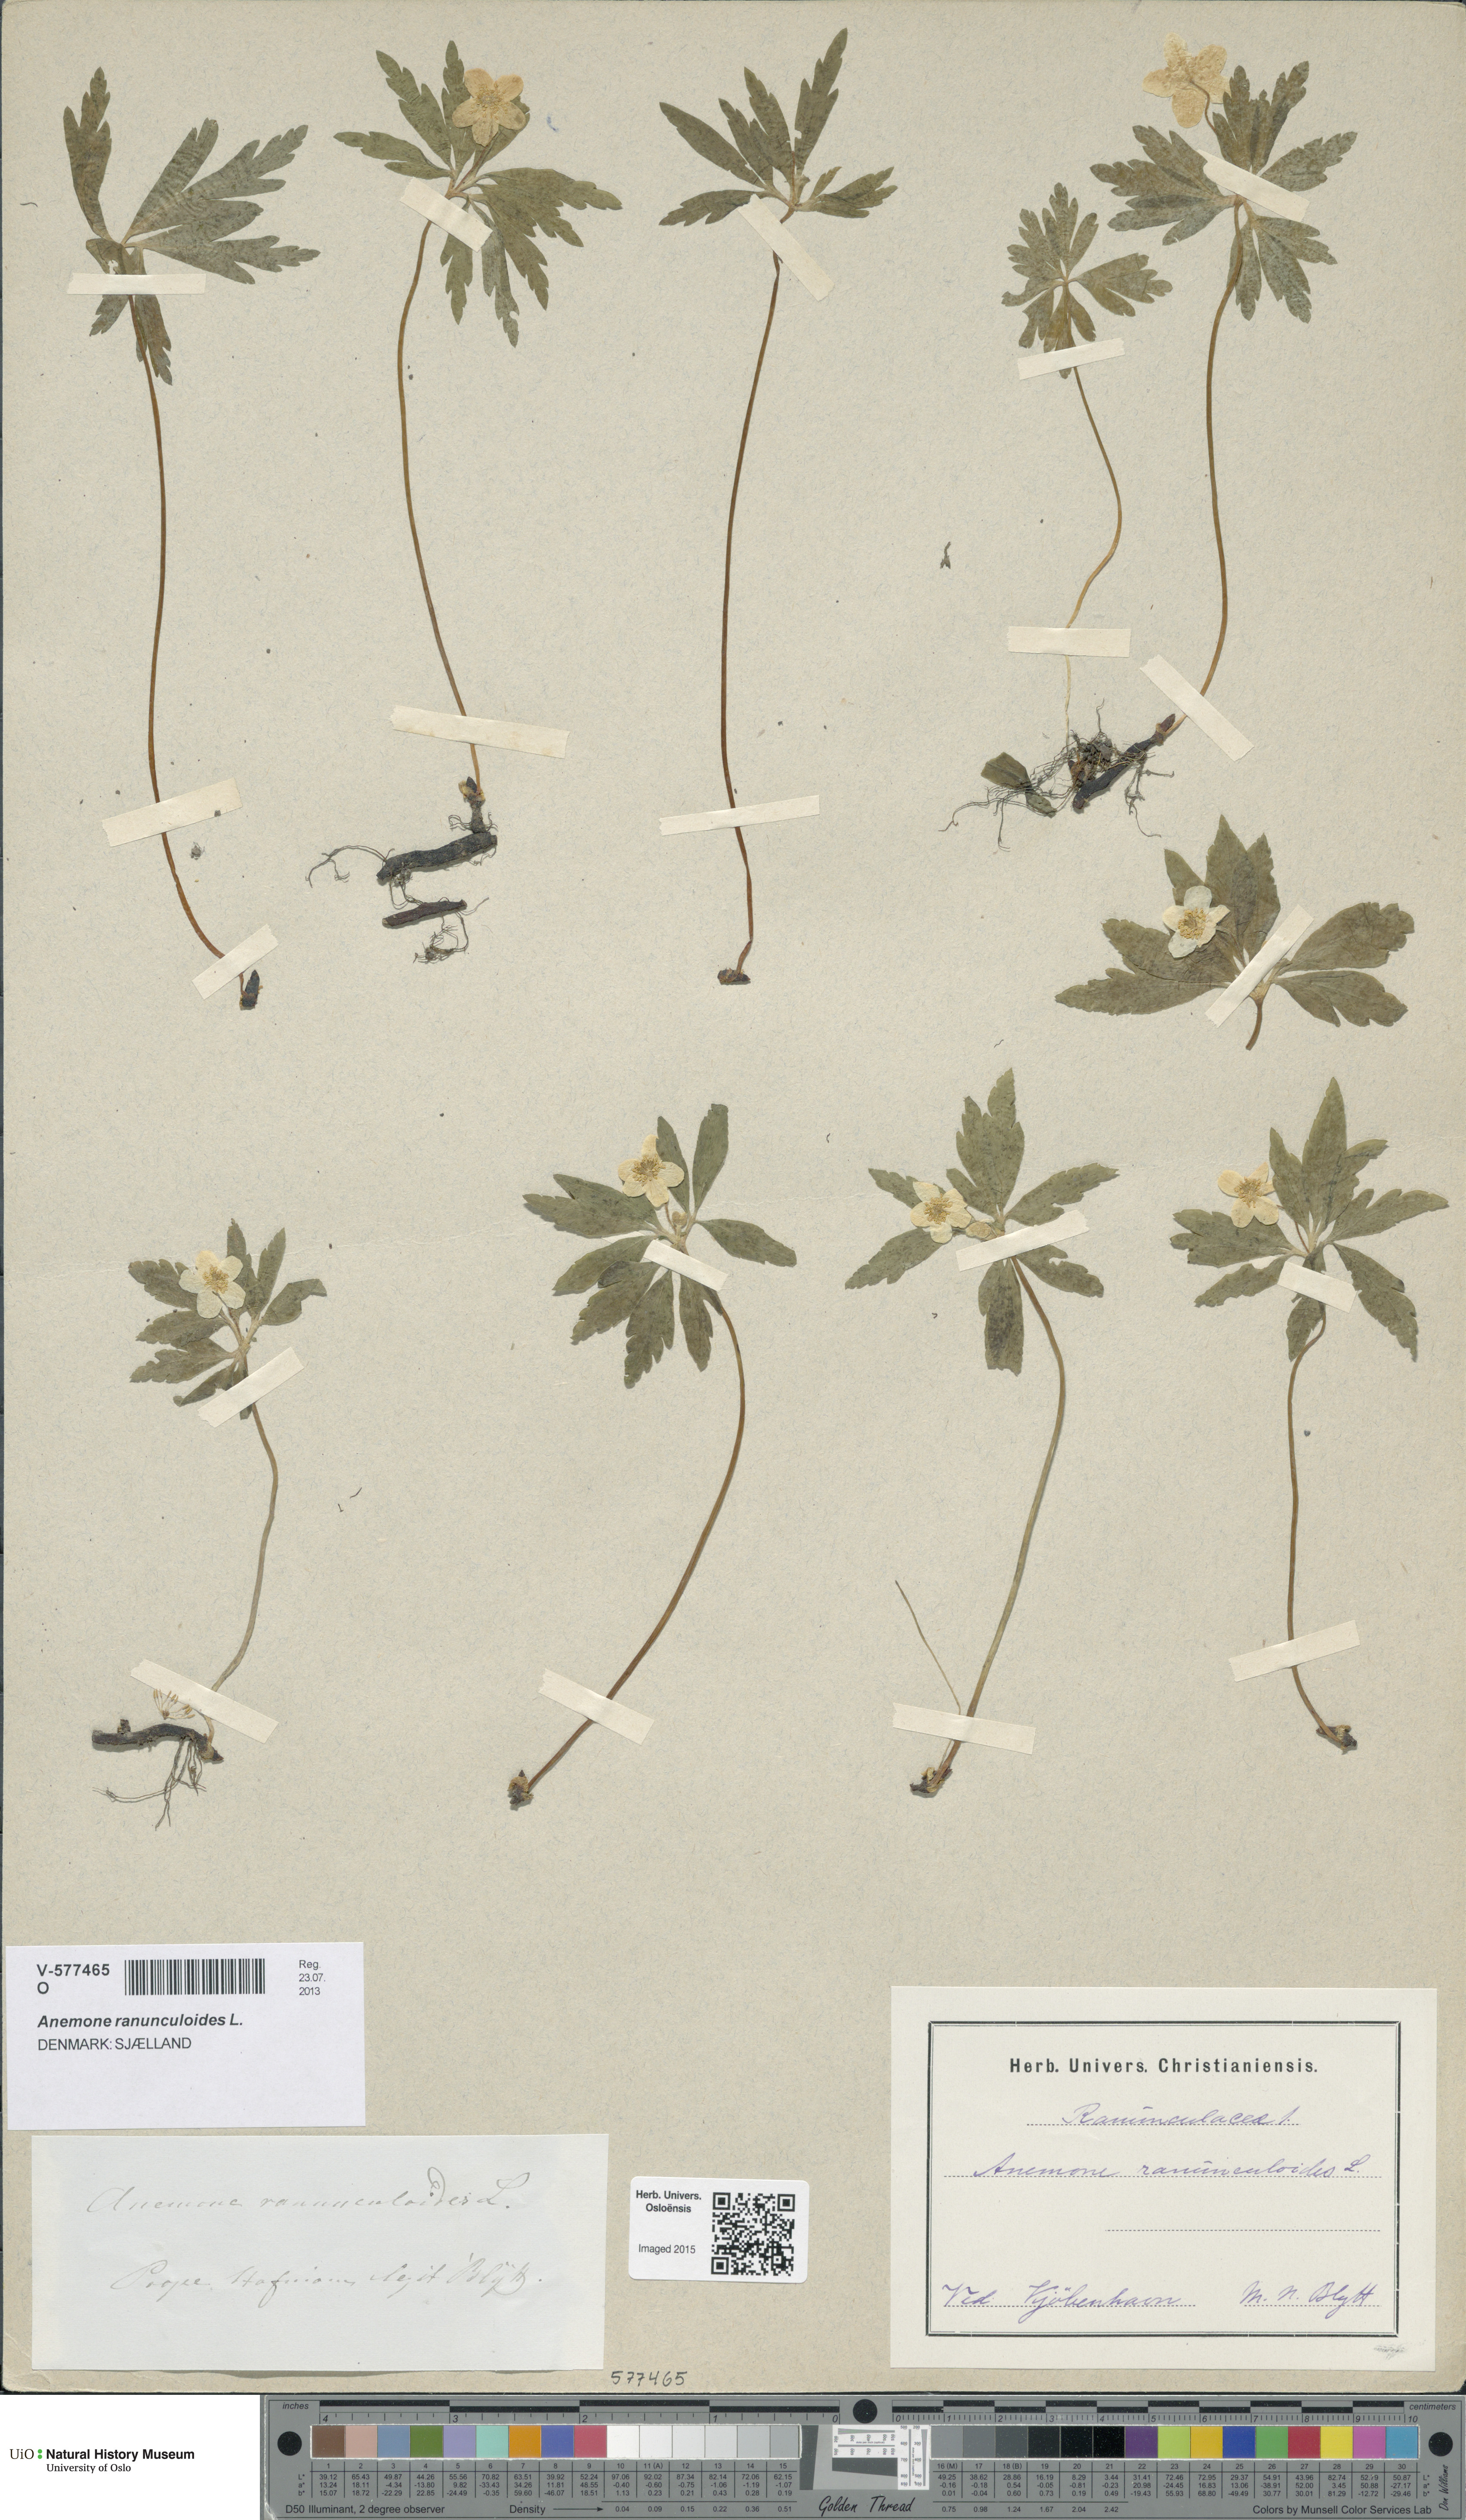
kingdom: Plantae
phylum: Tracheophyta
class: Magnoliopsida
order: Ranunculales
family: Ranunculaceae
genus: Anemone
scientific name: Anemone ranunculoides
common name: Yellow anemone
